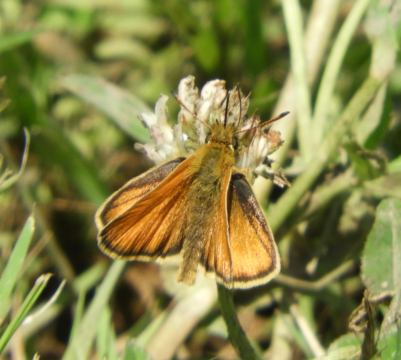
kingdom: Animalia
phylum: Arthropoda
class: Insecta
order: Lepidoptera
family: Hesperiidae
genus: Thymelicus
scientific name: Thymelicus lineola
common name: European Skipper
